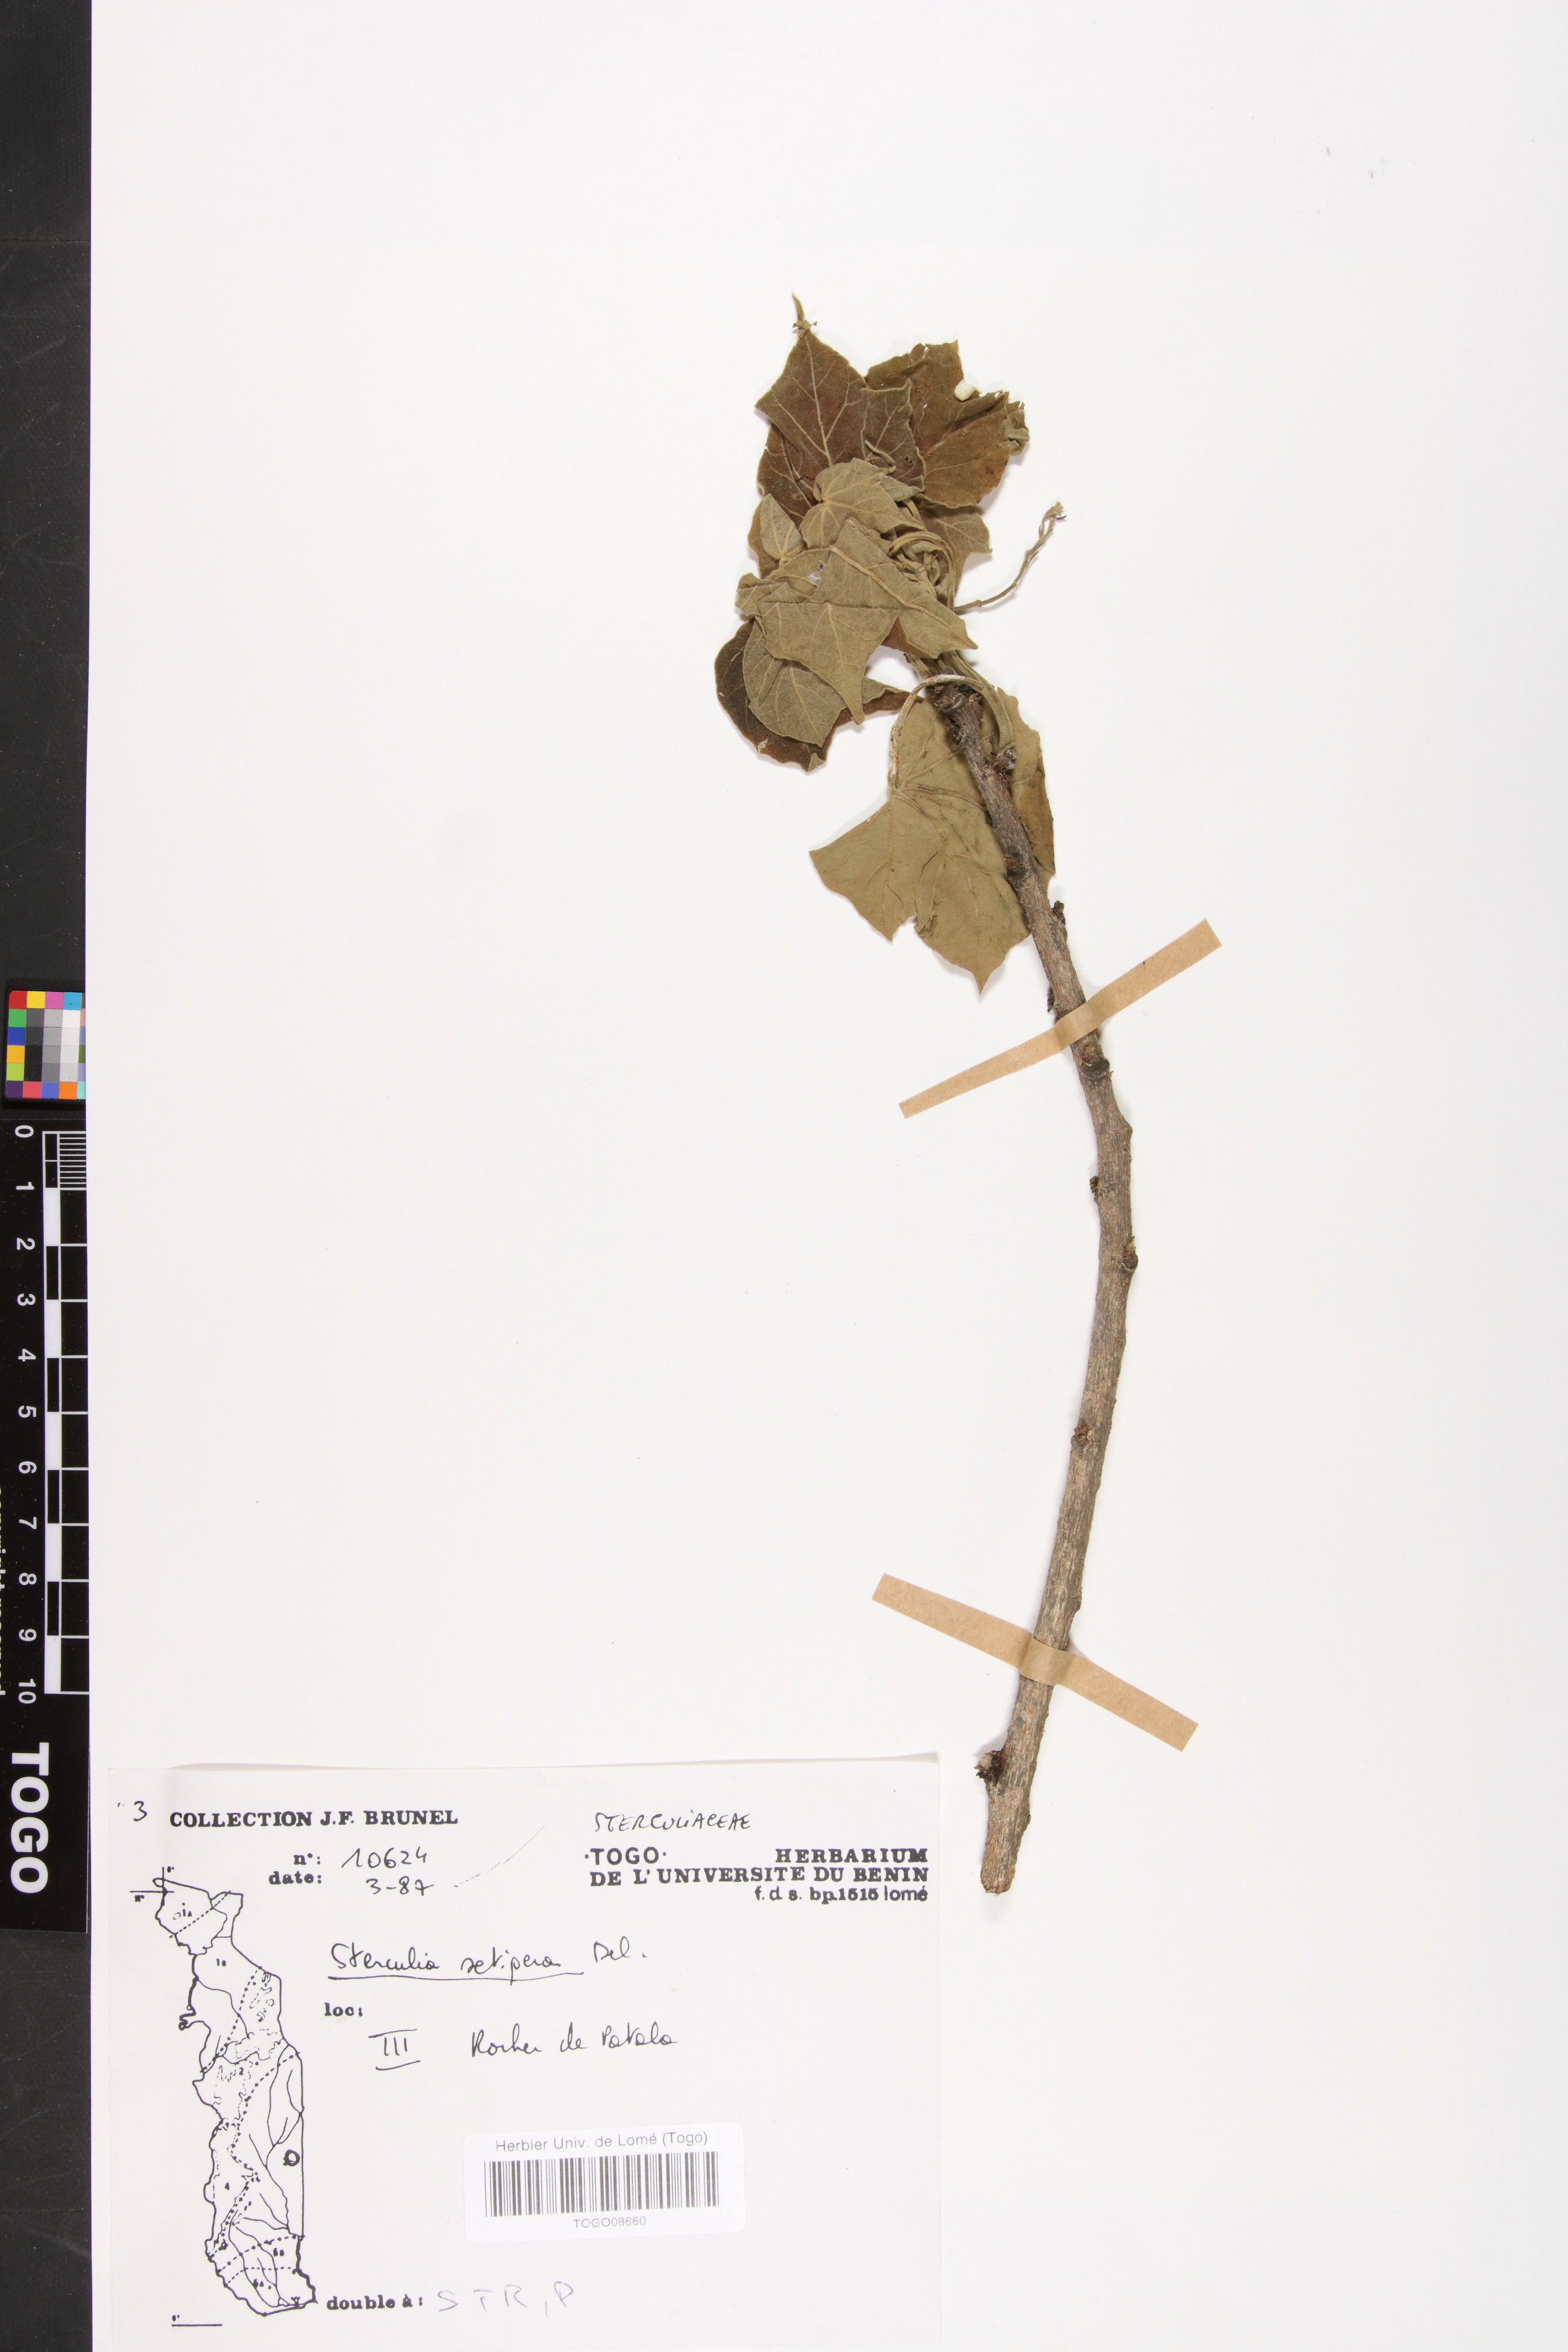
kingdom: Plantae
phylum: Tracheophyta
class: Magnoliopsida
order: Malvales
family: Malvaceae
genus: Sterculia
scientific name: Sterculia setigera
